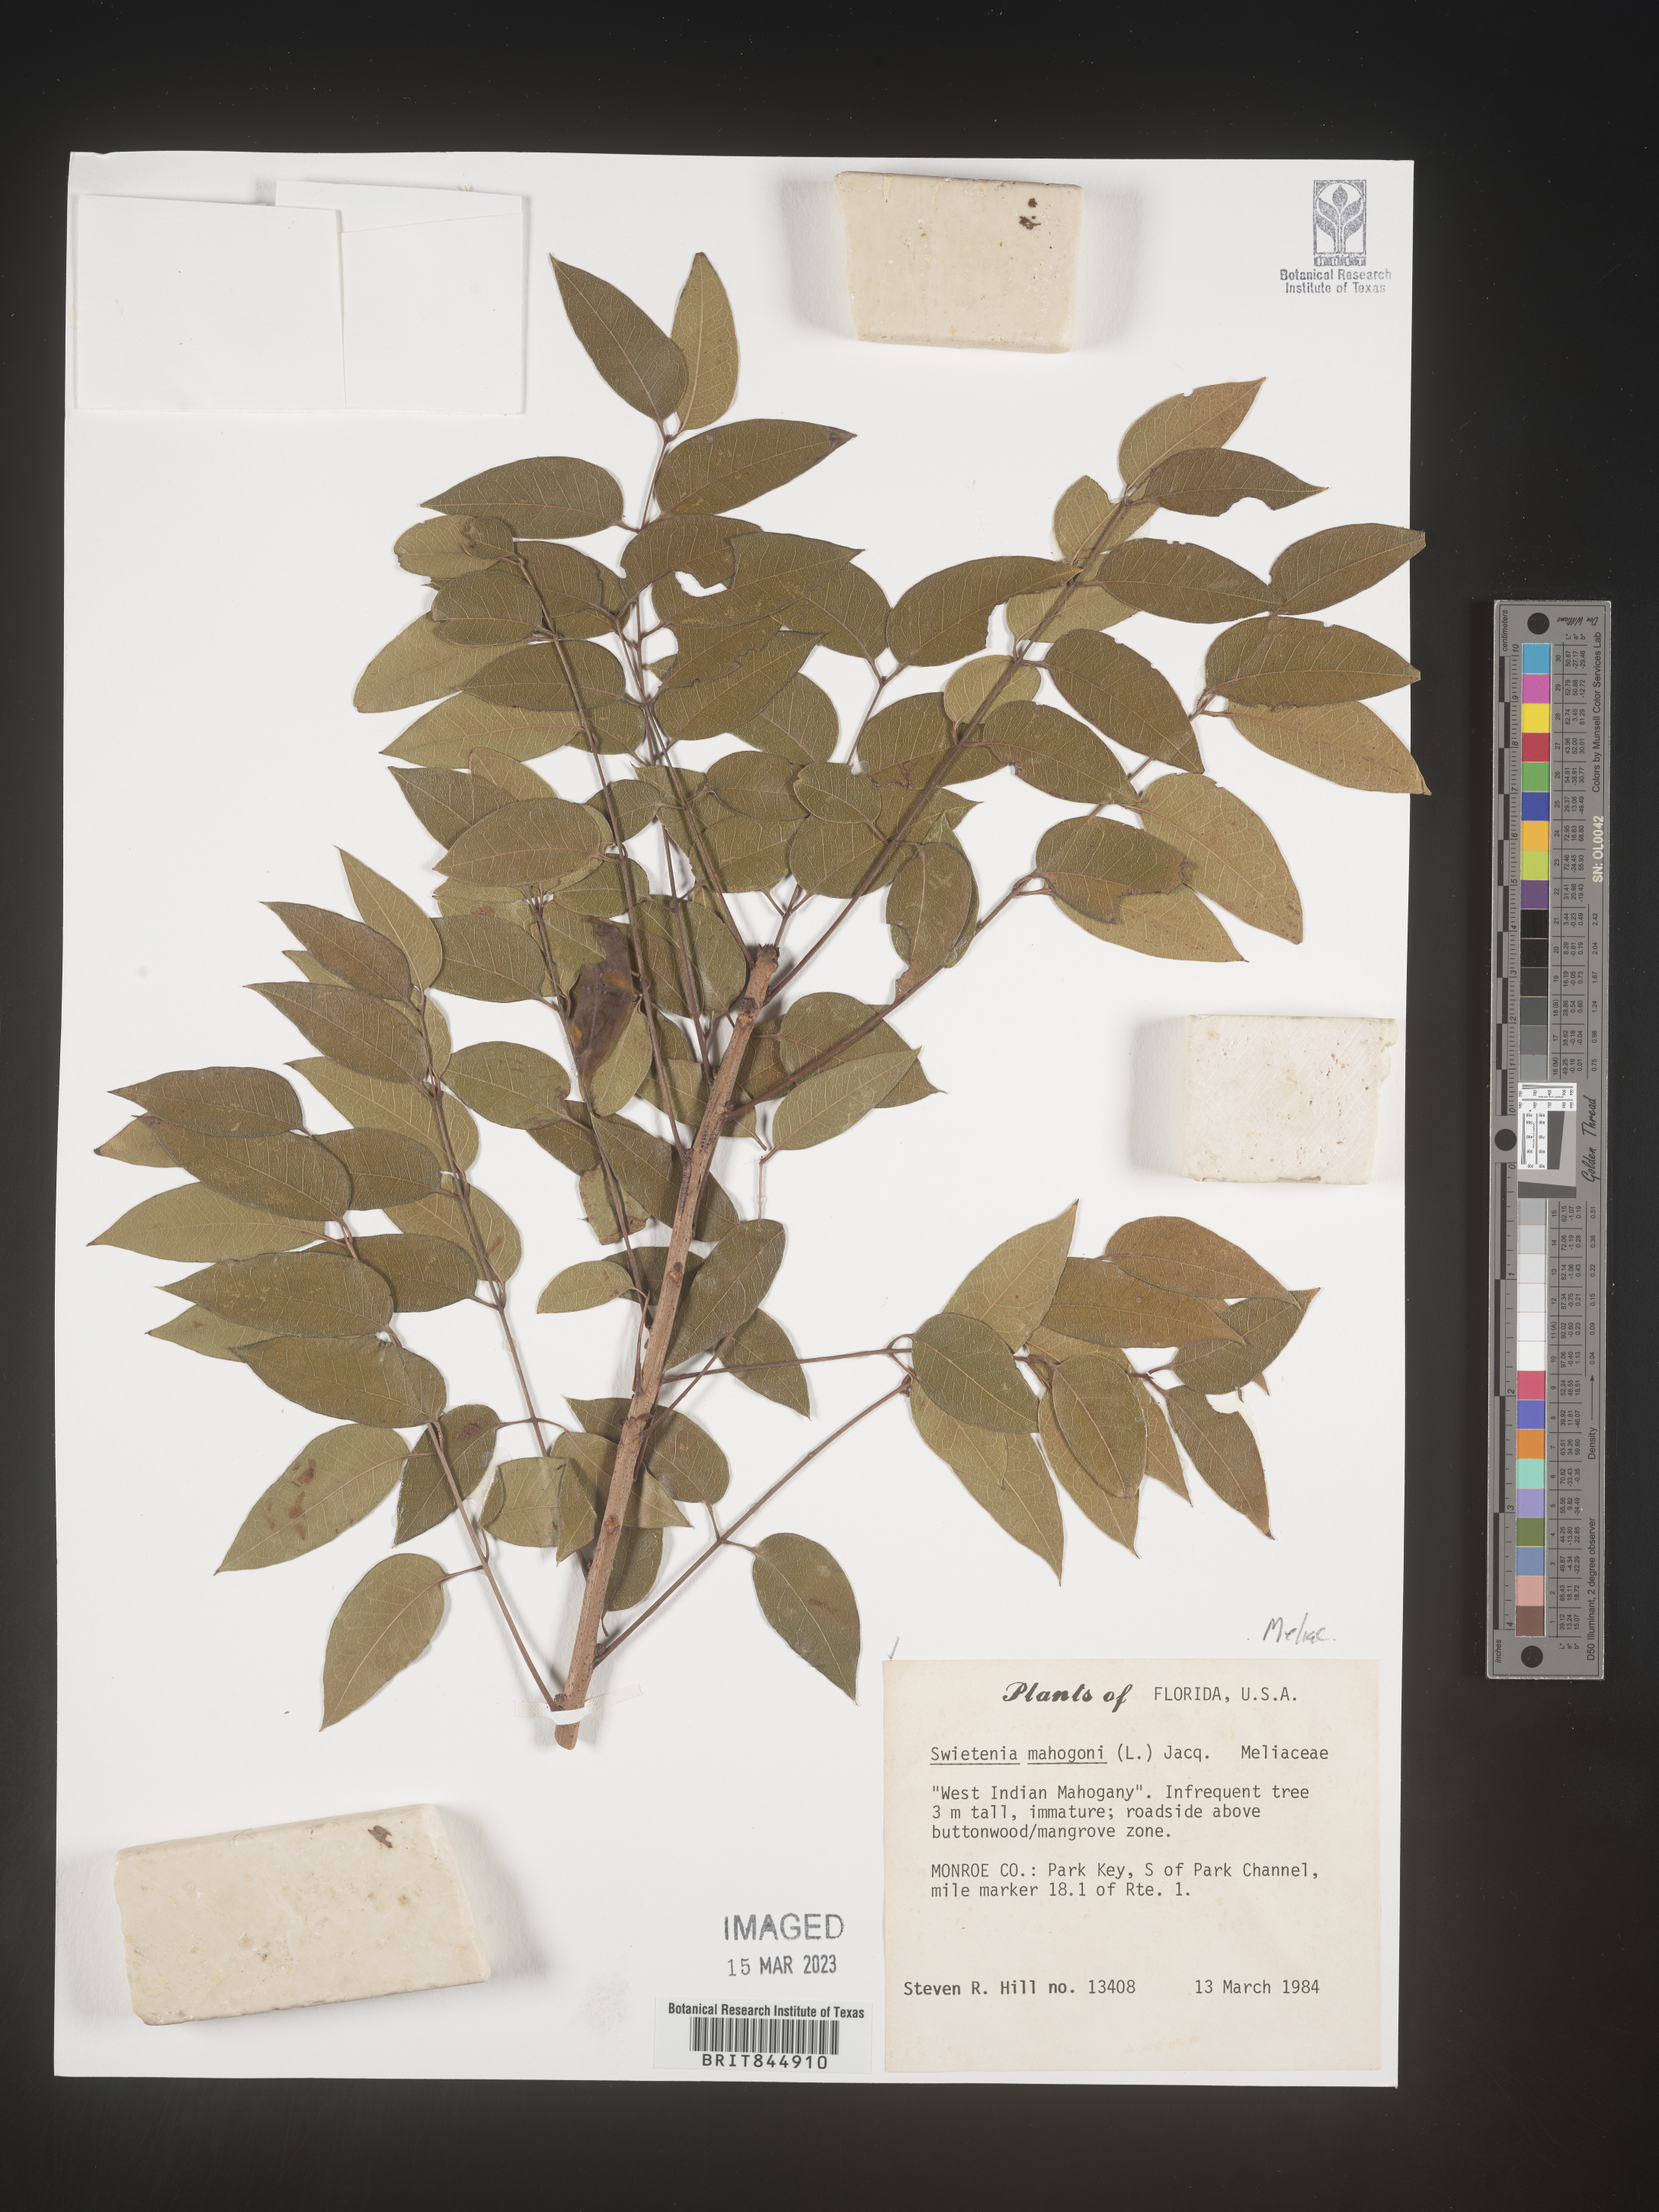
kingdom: Plantae
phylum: Tracheophyta
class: Magnoliopsida
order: Sapindales
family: Meliaceae
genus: Swietenia
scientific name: Swietenia
